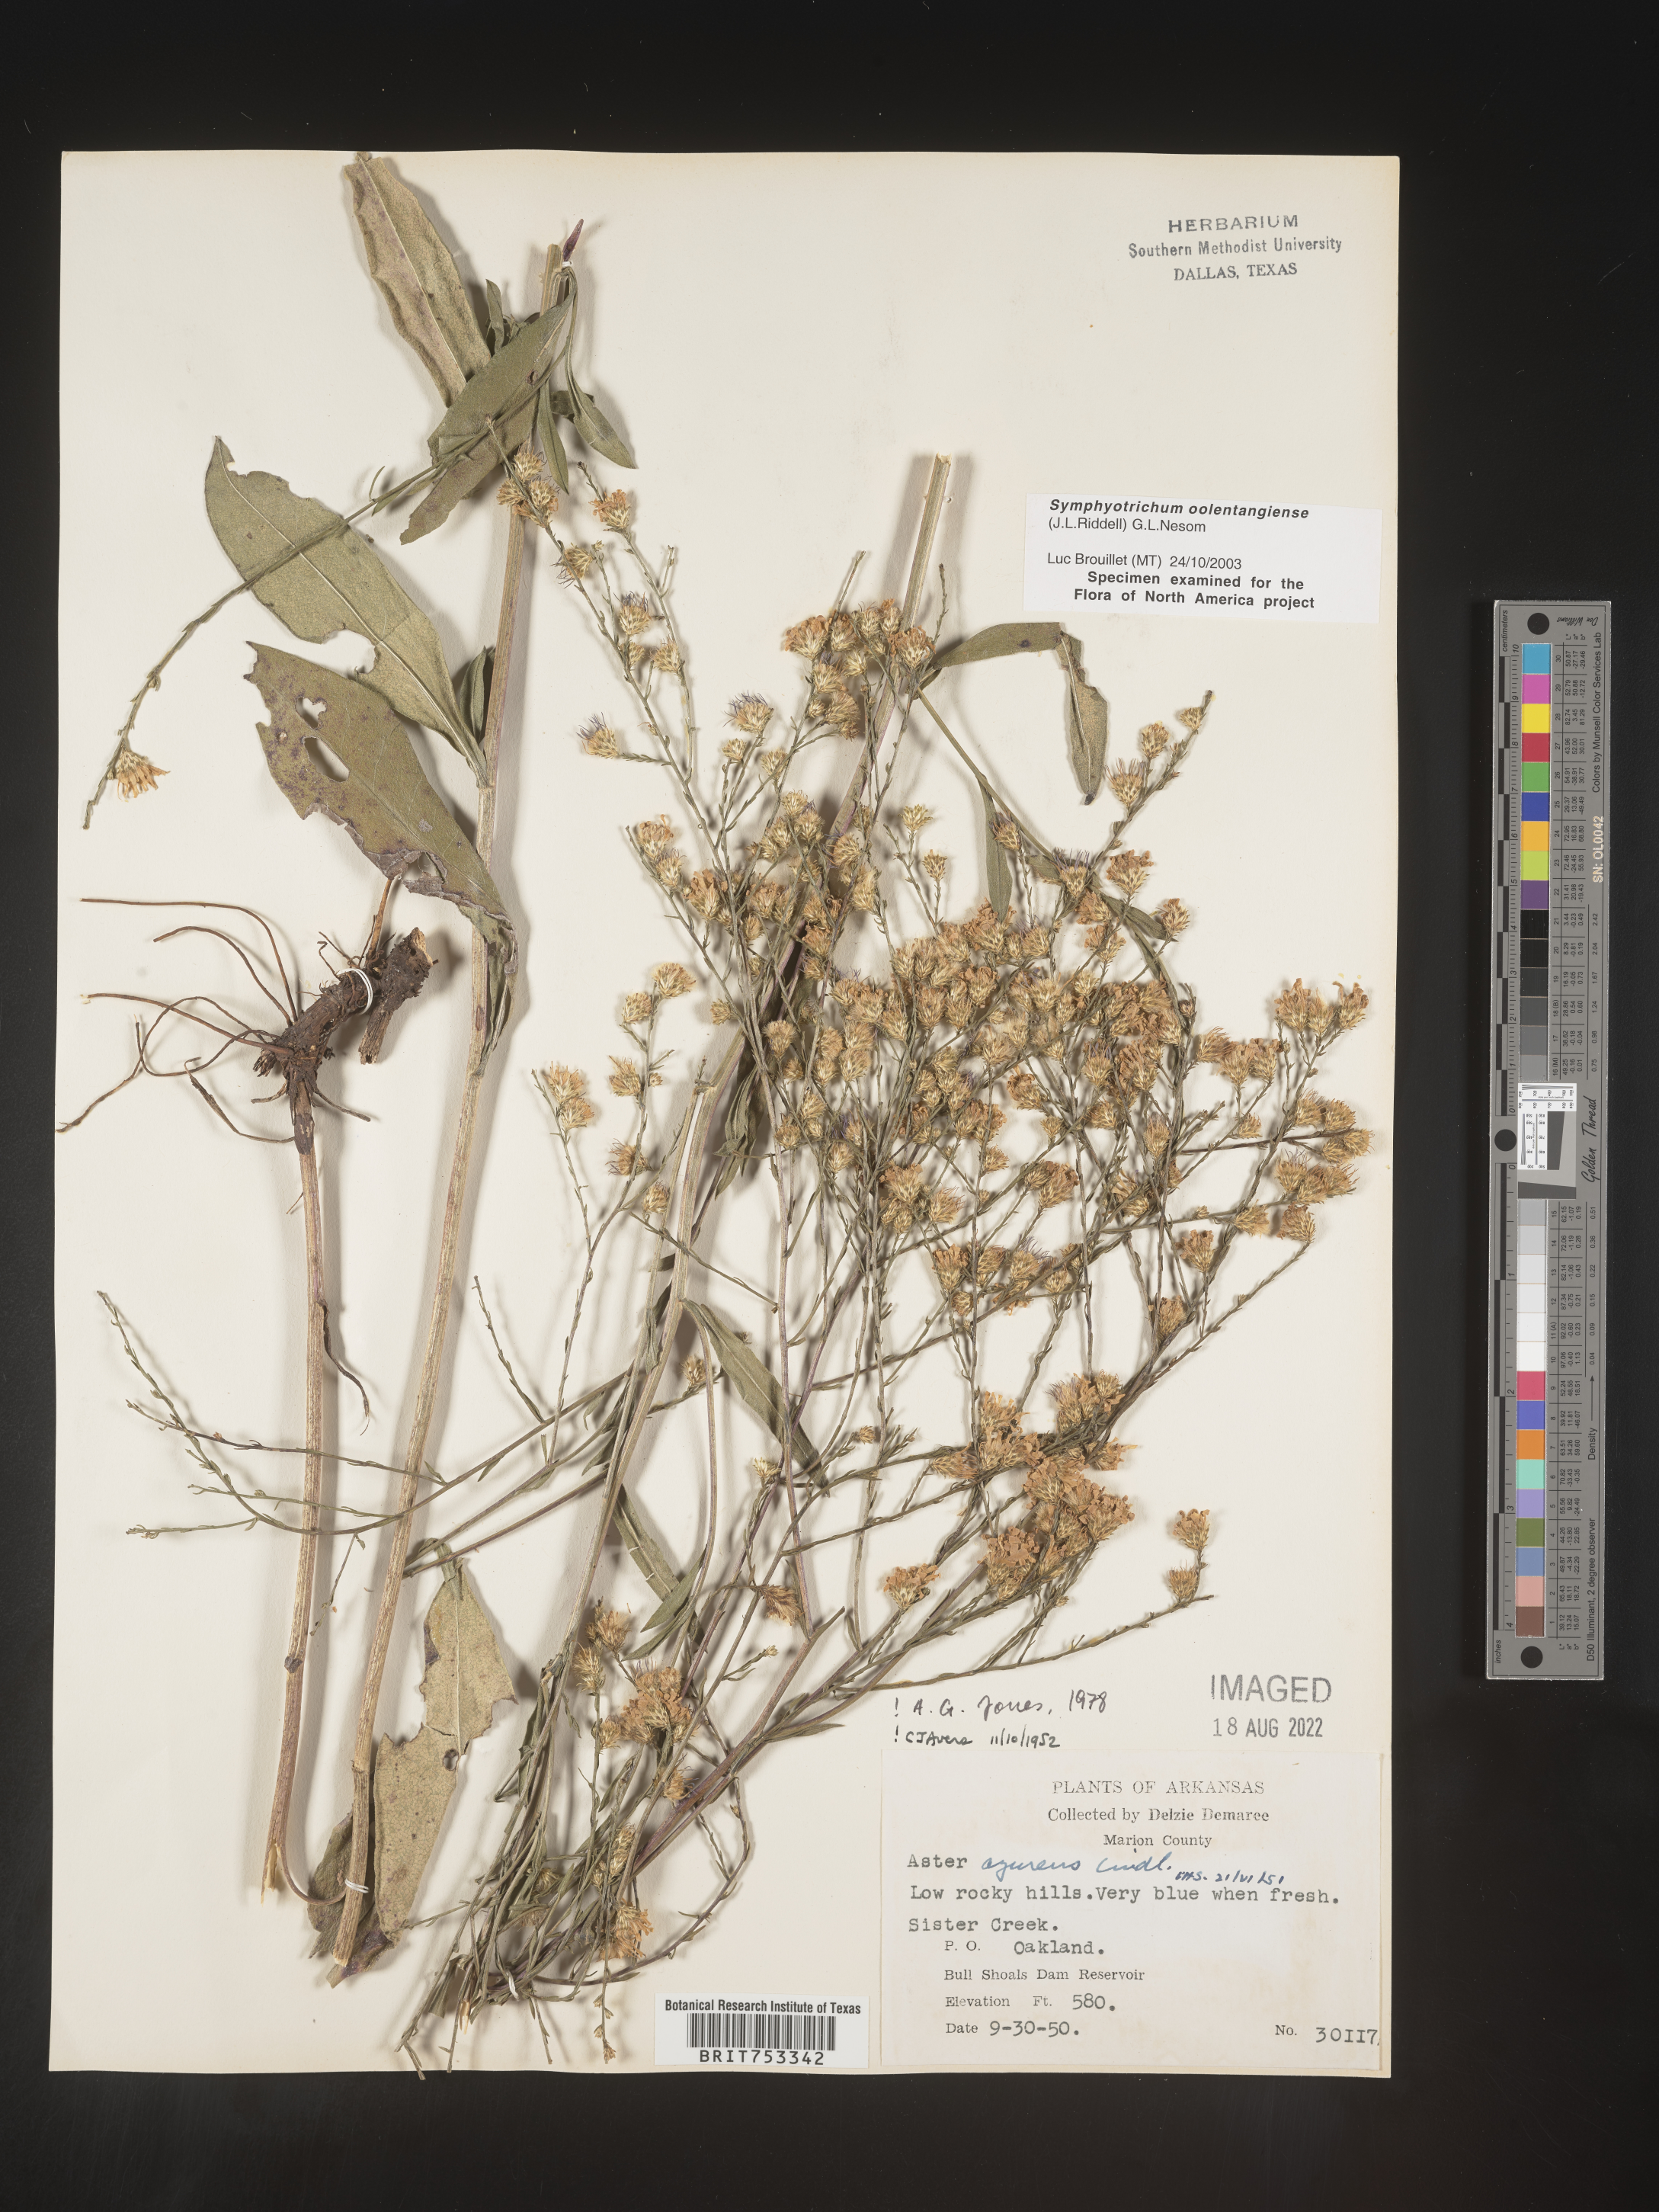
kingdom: Plantae
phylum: Tracheophyta
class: Magnoliopsida
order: Asterales
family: Asteraceae
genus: Symphyotrichum
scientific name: Symphyotrichum oolentangiense
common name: Azure aster
